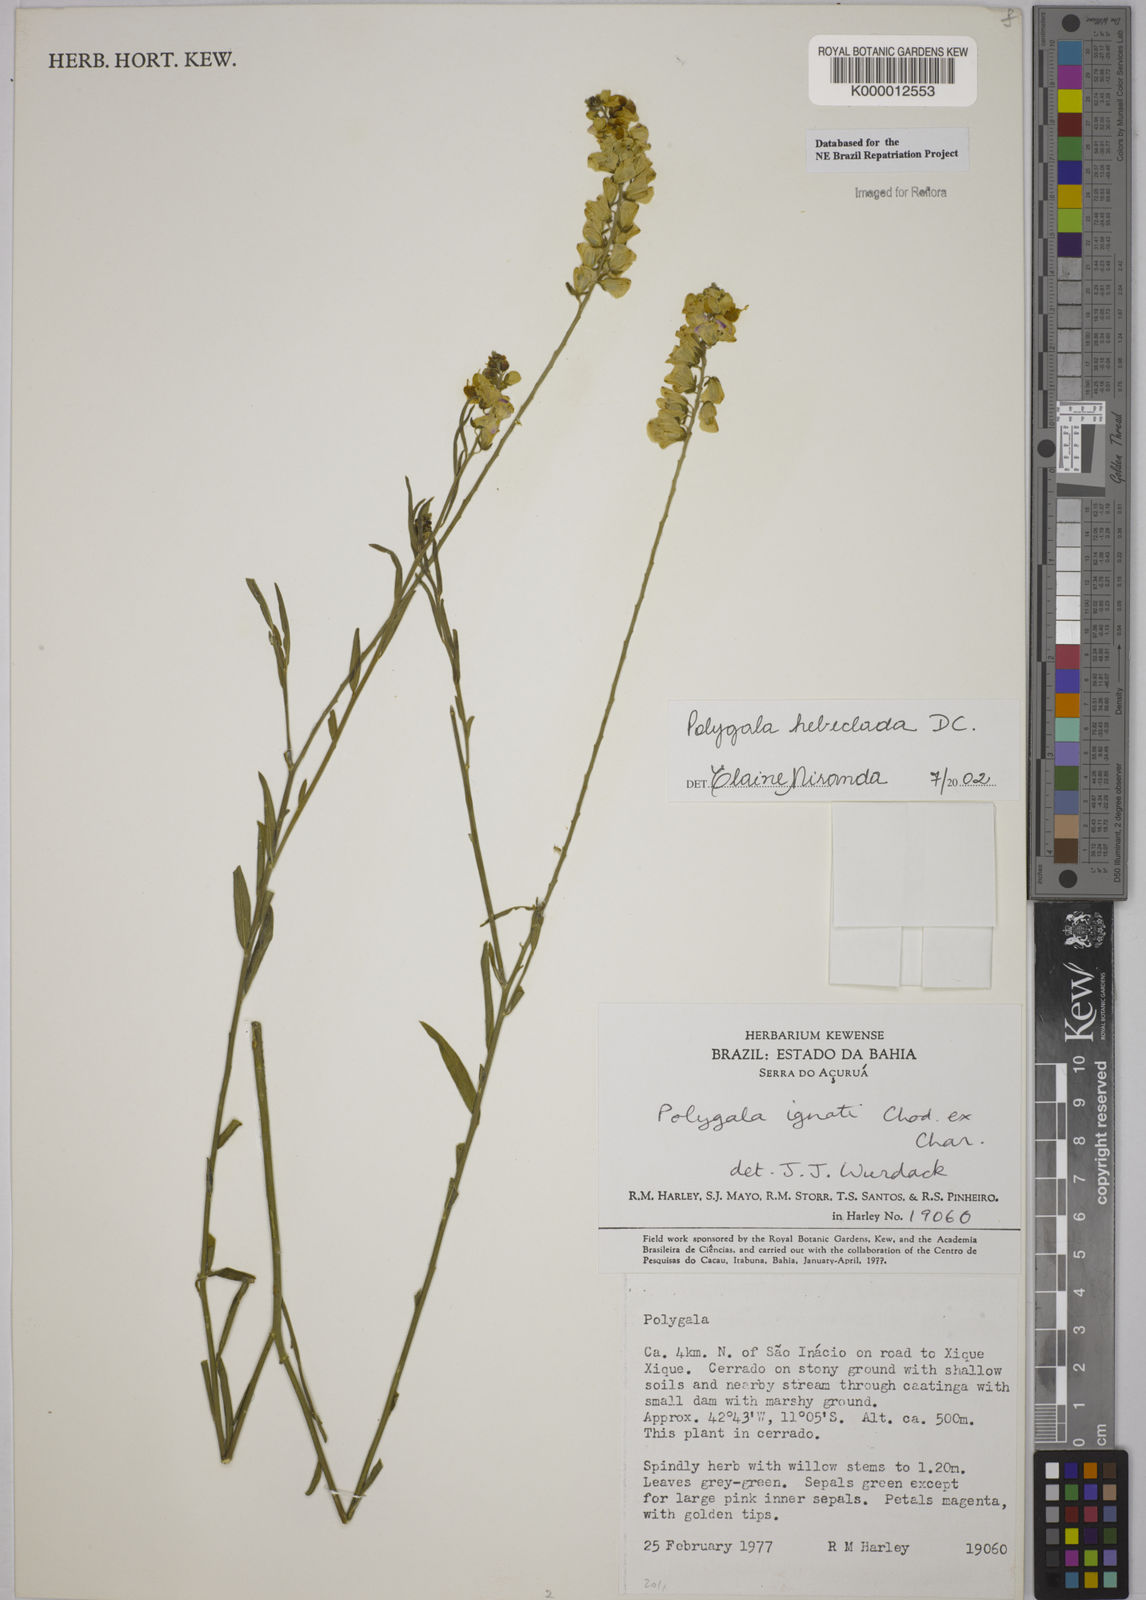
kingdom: Plantae
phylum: Tracheophyta
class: Magnoliopsida
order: Fabales
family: Polygalaceae
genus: Asemeia
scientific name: Asemeia hebeclada
